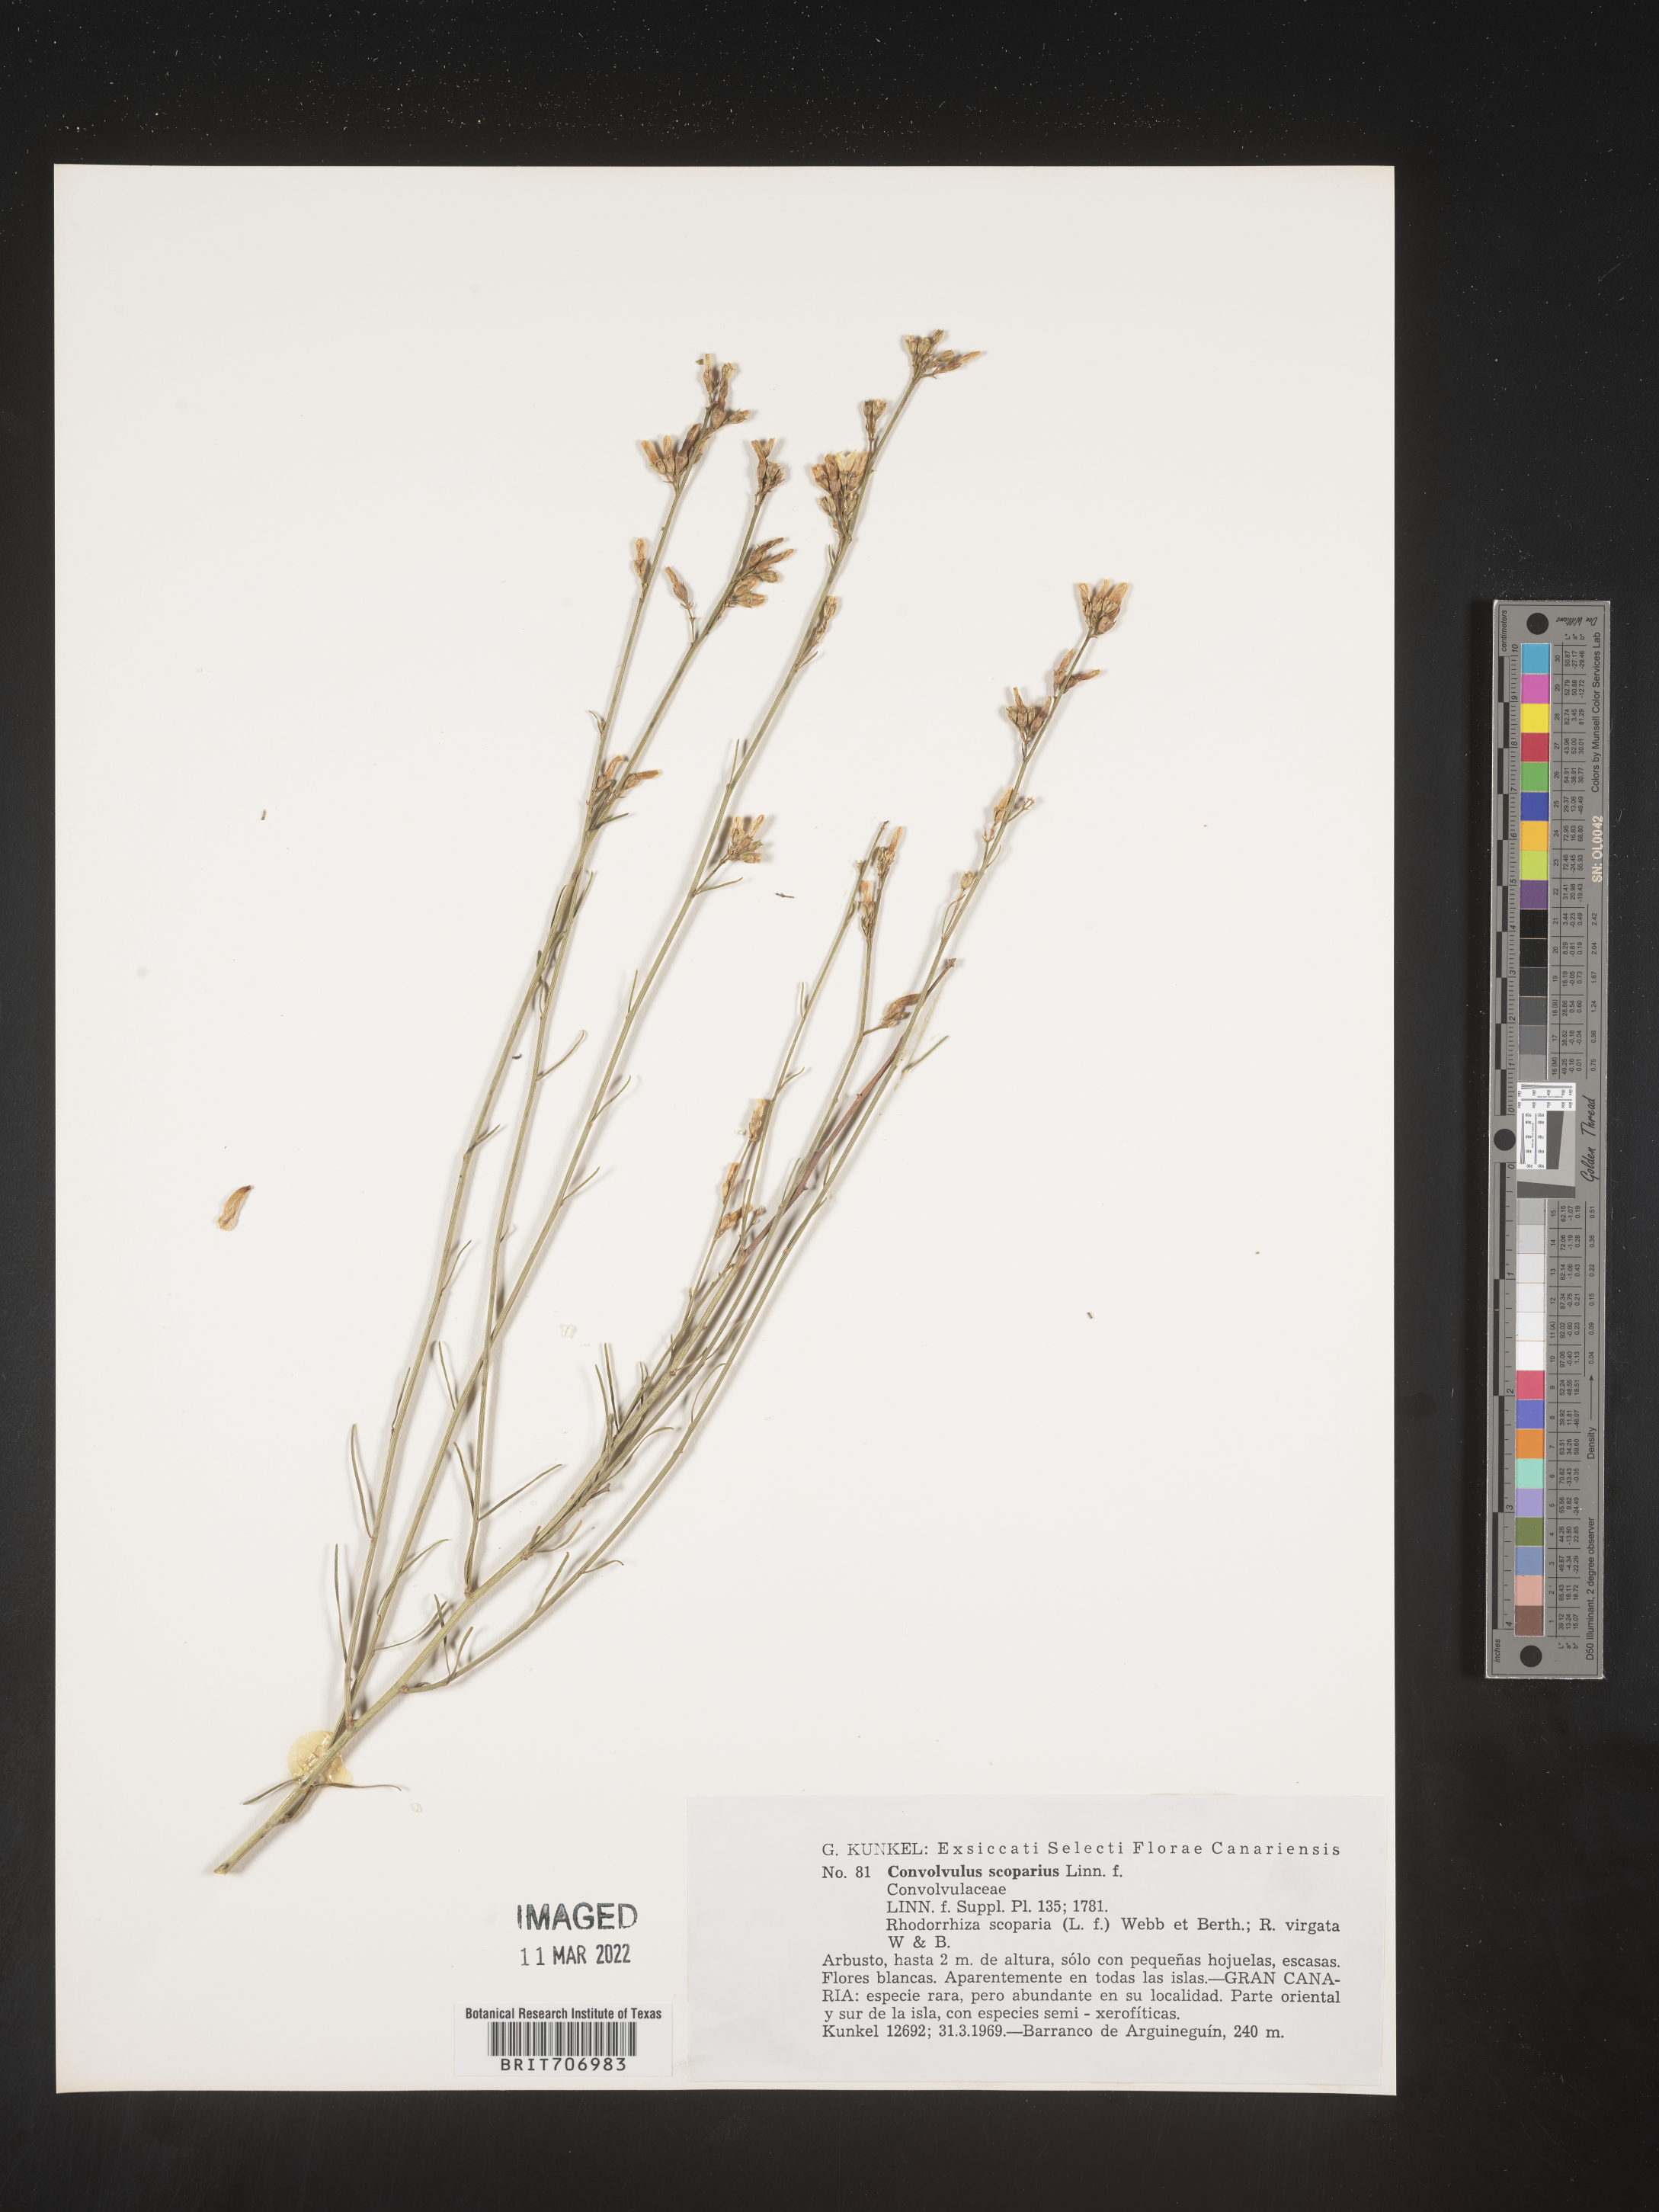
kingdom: Plantae
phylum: Tracheophyta
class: Magnoliopsida
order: Solanales
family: Convolvulaceae
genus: Convolvulus
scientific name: Convolvulus
